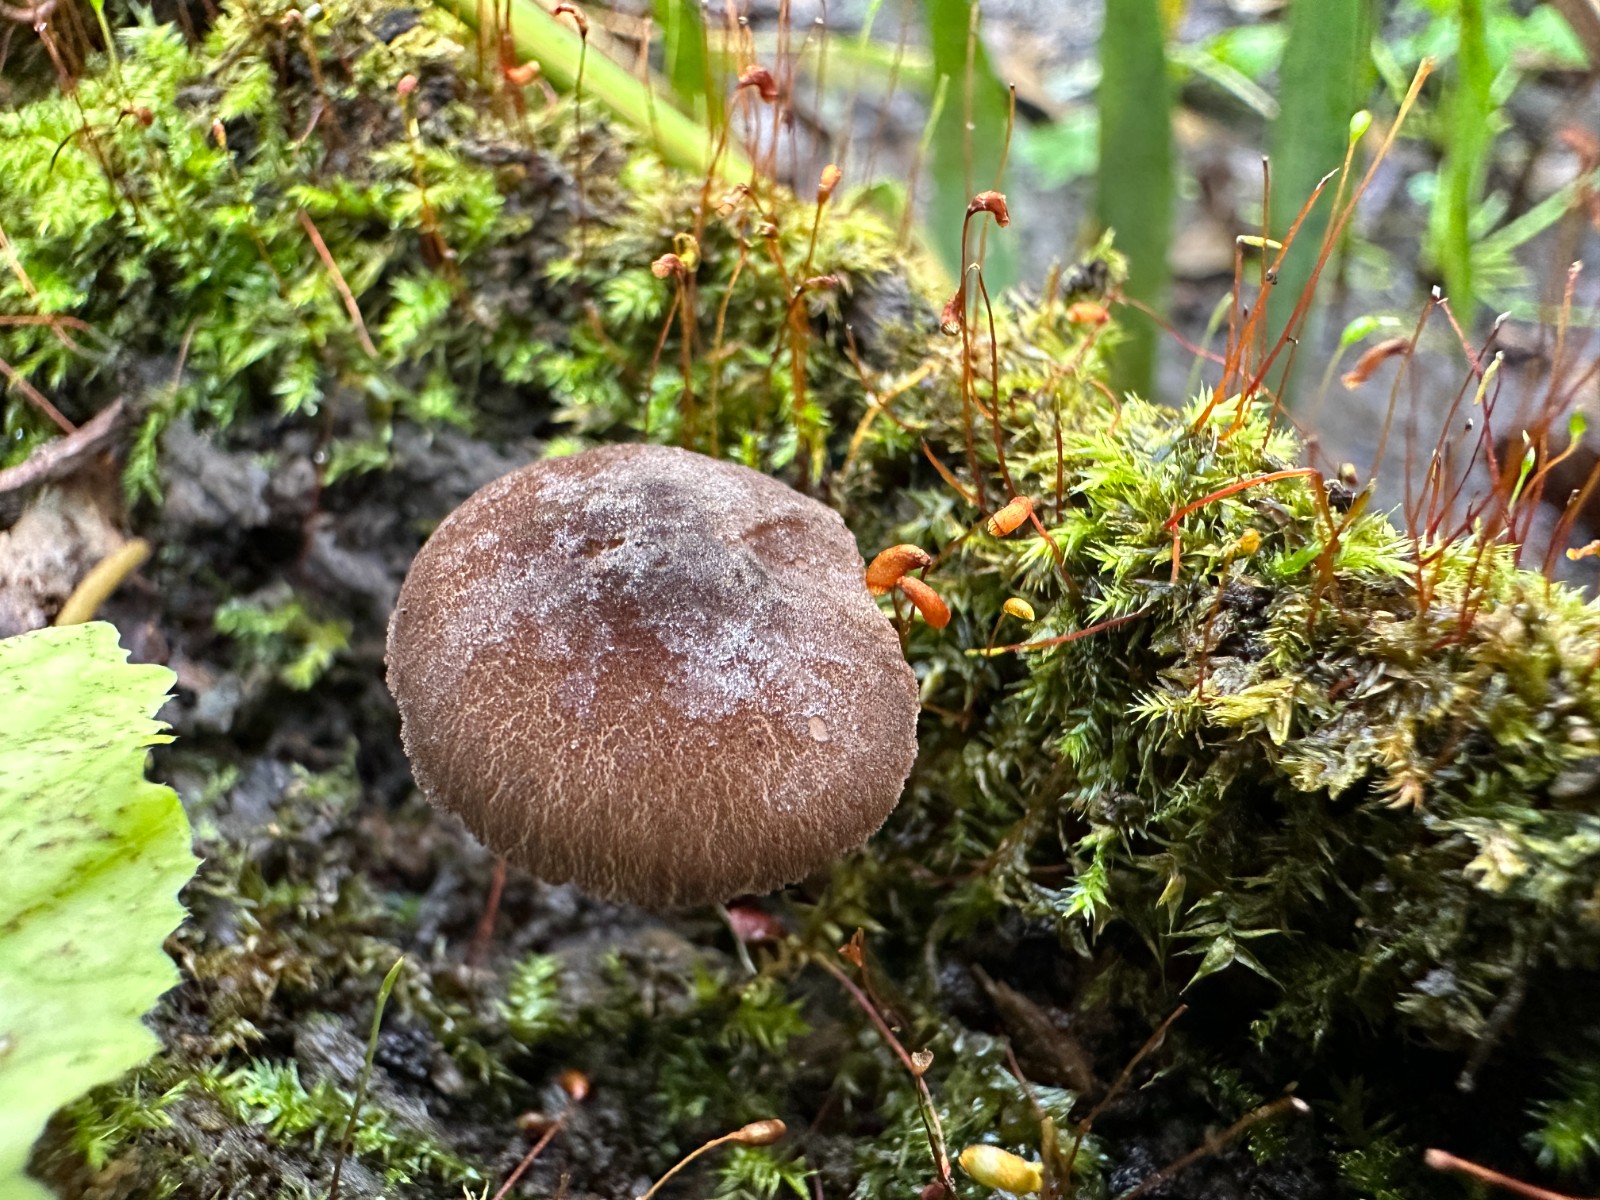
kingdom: Fungi
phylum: Basidiomycota
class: Agaricomycetes
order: Agaricales
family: Pluteaceae
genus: Pluteus
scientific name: Pluteus podospileus
